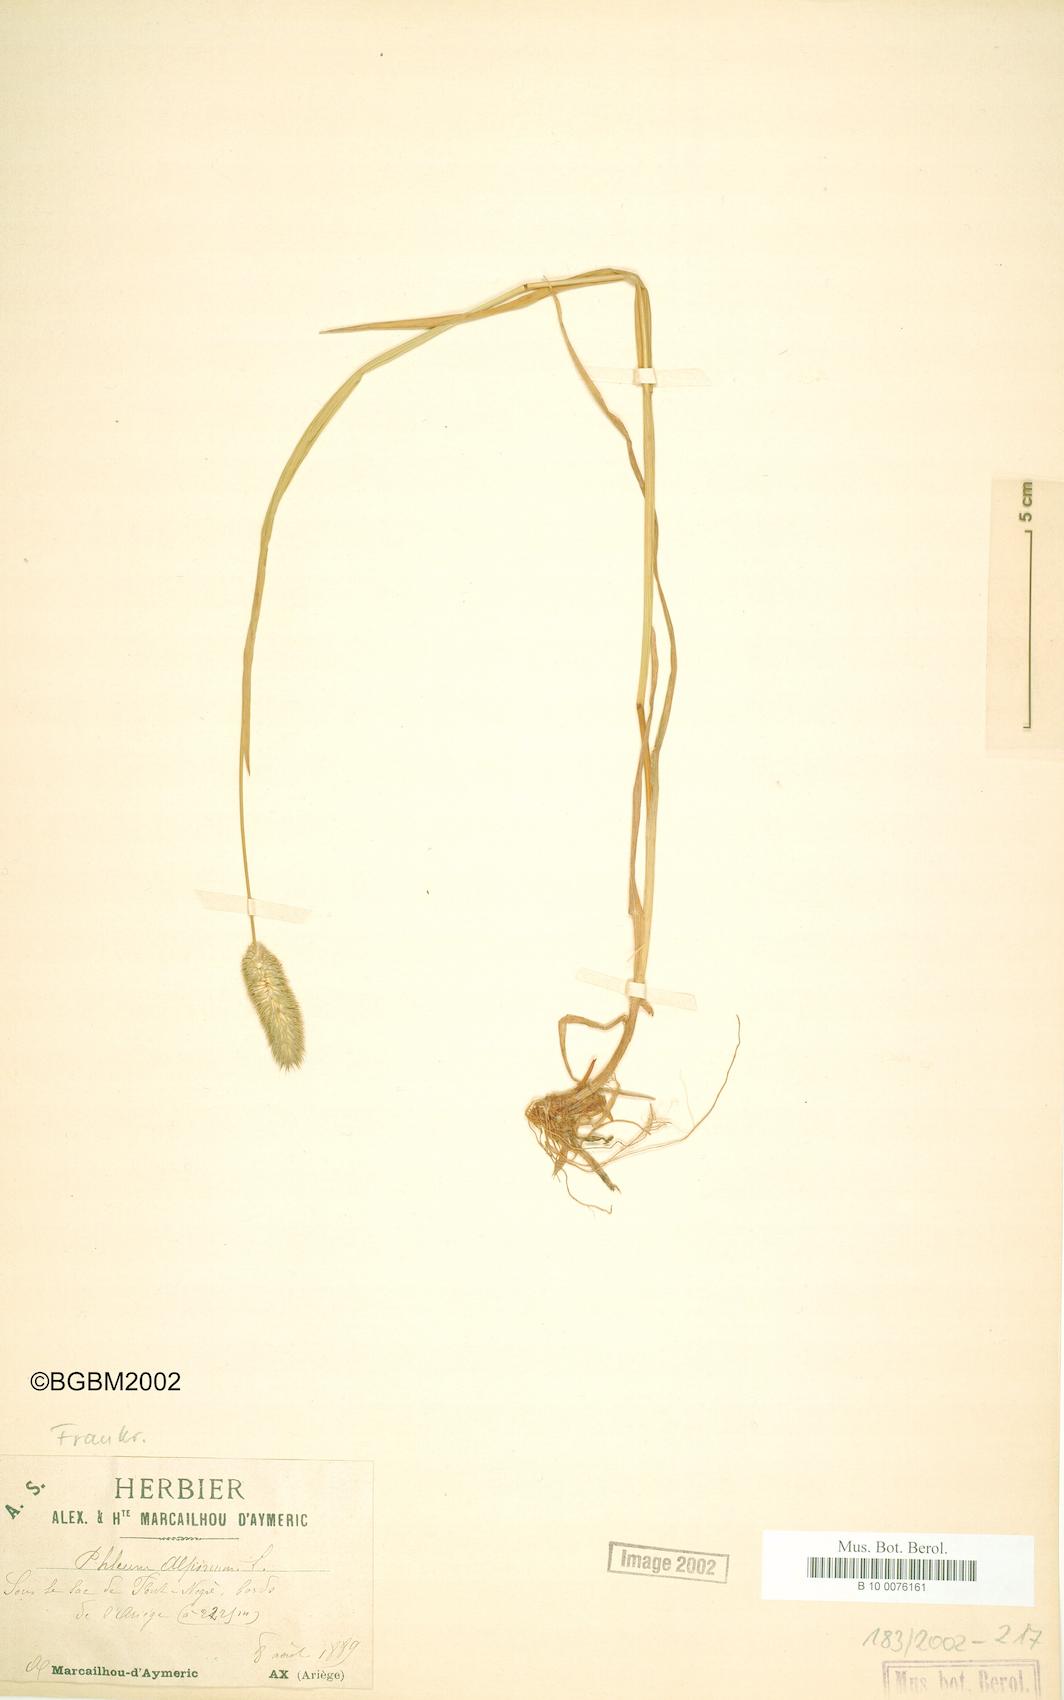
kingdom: Plantae
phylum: Tracheophyta
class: Liliopsida
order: Poales
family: Poaceae
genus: Phleum
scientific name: Phleum alpinum
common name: Alpine cat's-tail
